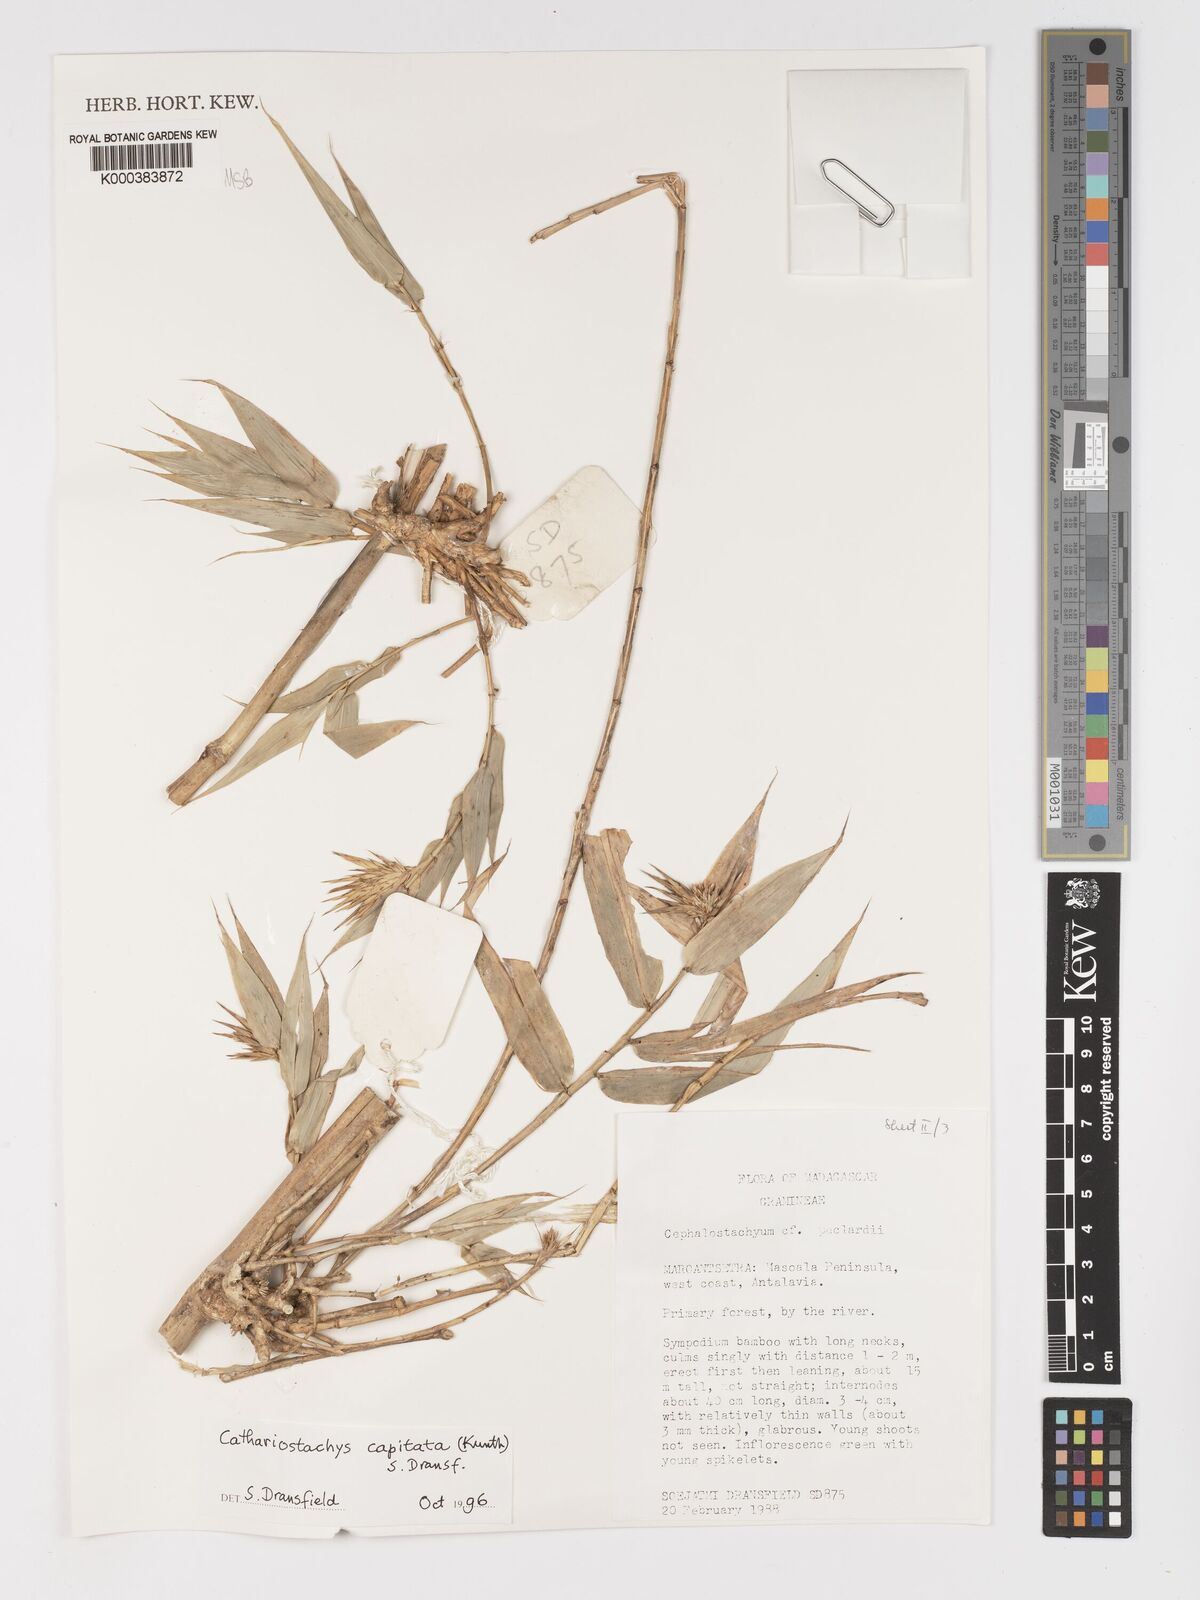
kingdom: Plantae
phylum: Tracheophyta
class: Liliopsida
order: Poales
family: Poaceae
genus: Cathariostachys
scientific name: Cathariostachys capitata
